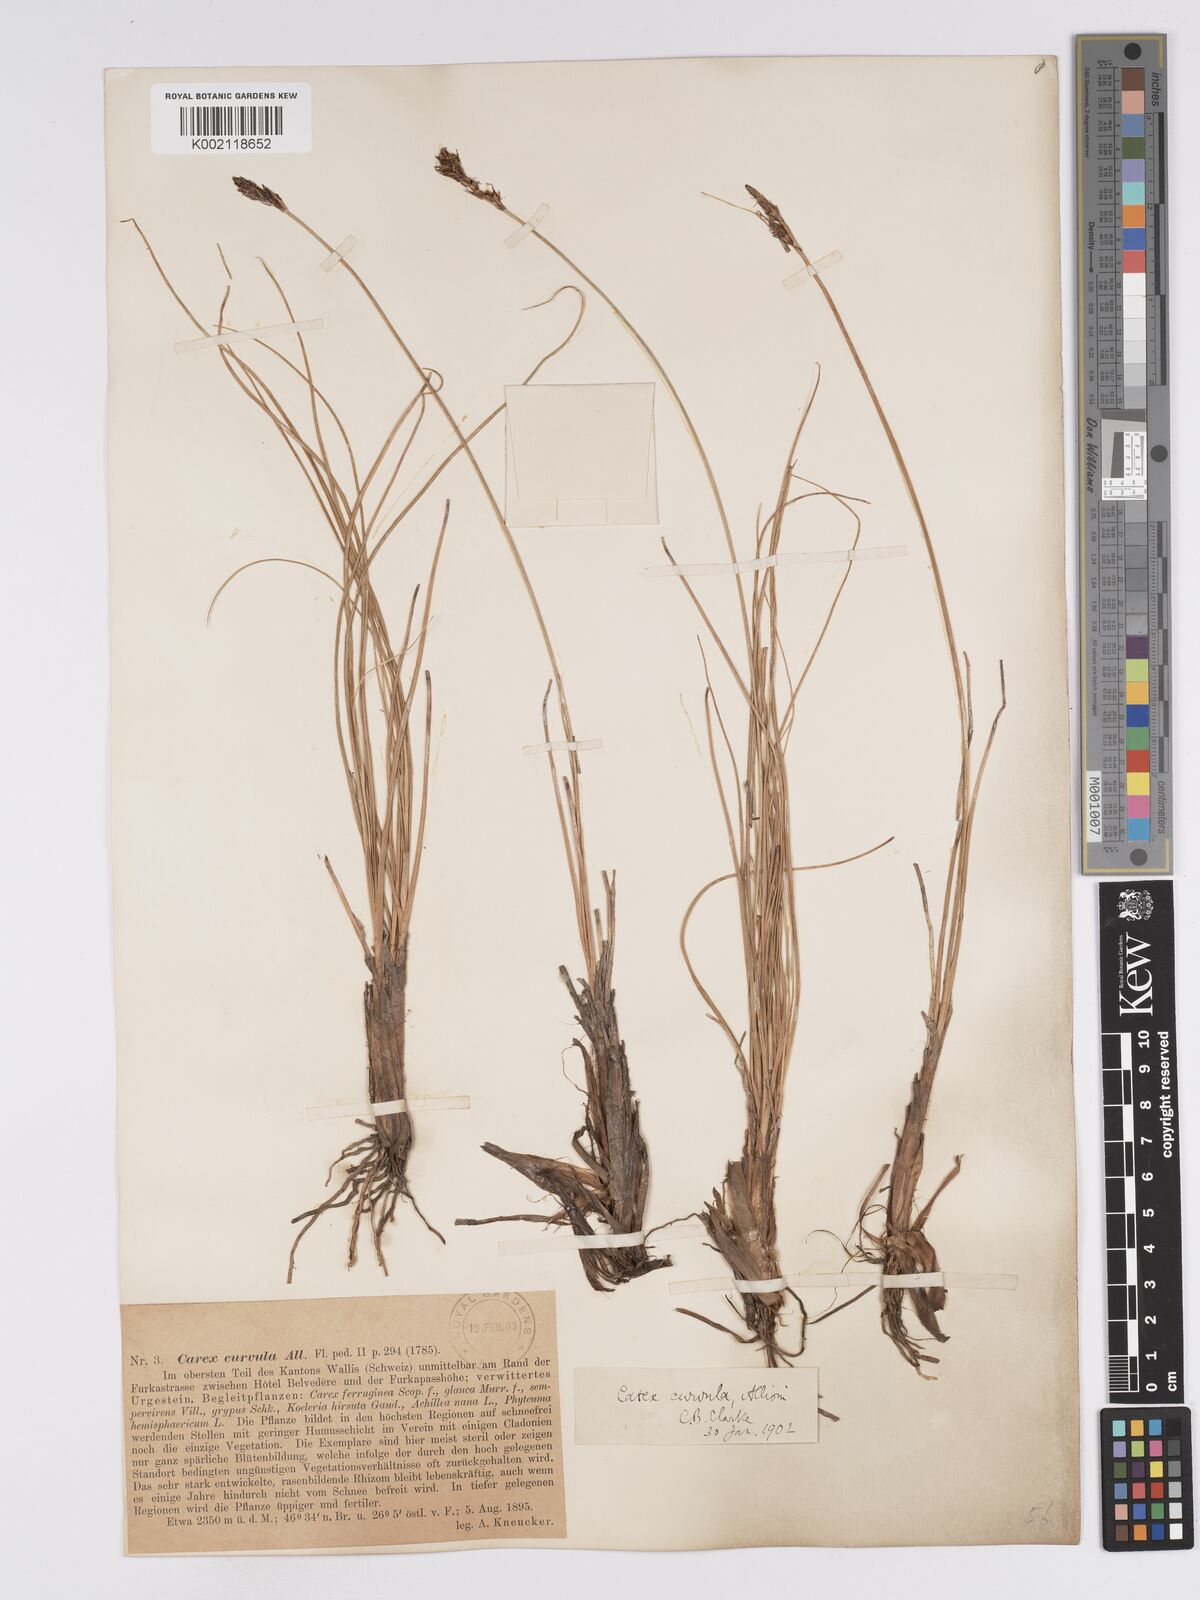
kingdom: Plantae
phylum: Tracheophyta
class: Liliopsida
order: Poales
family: Cyperaceae
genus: Carex
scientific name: Carex curvula
